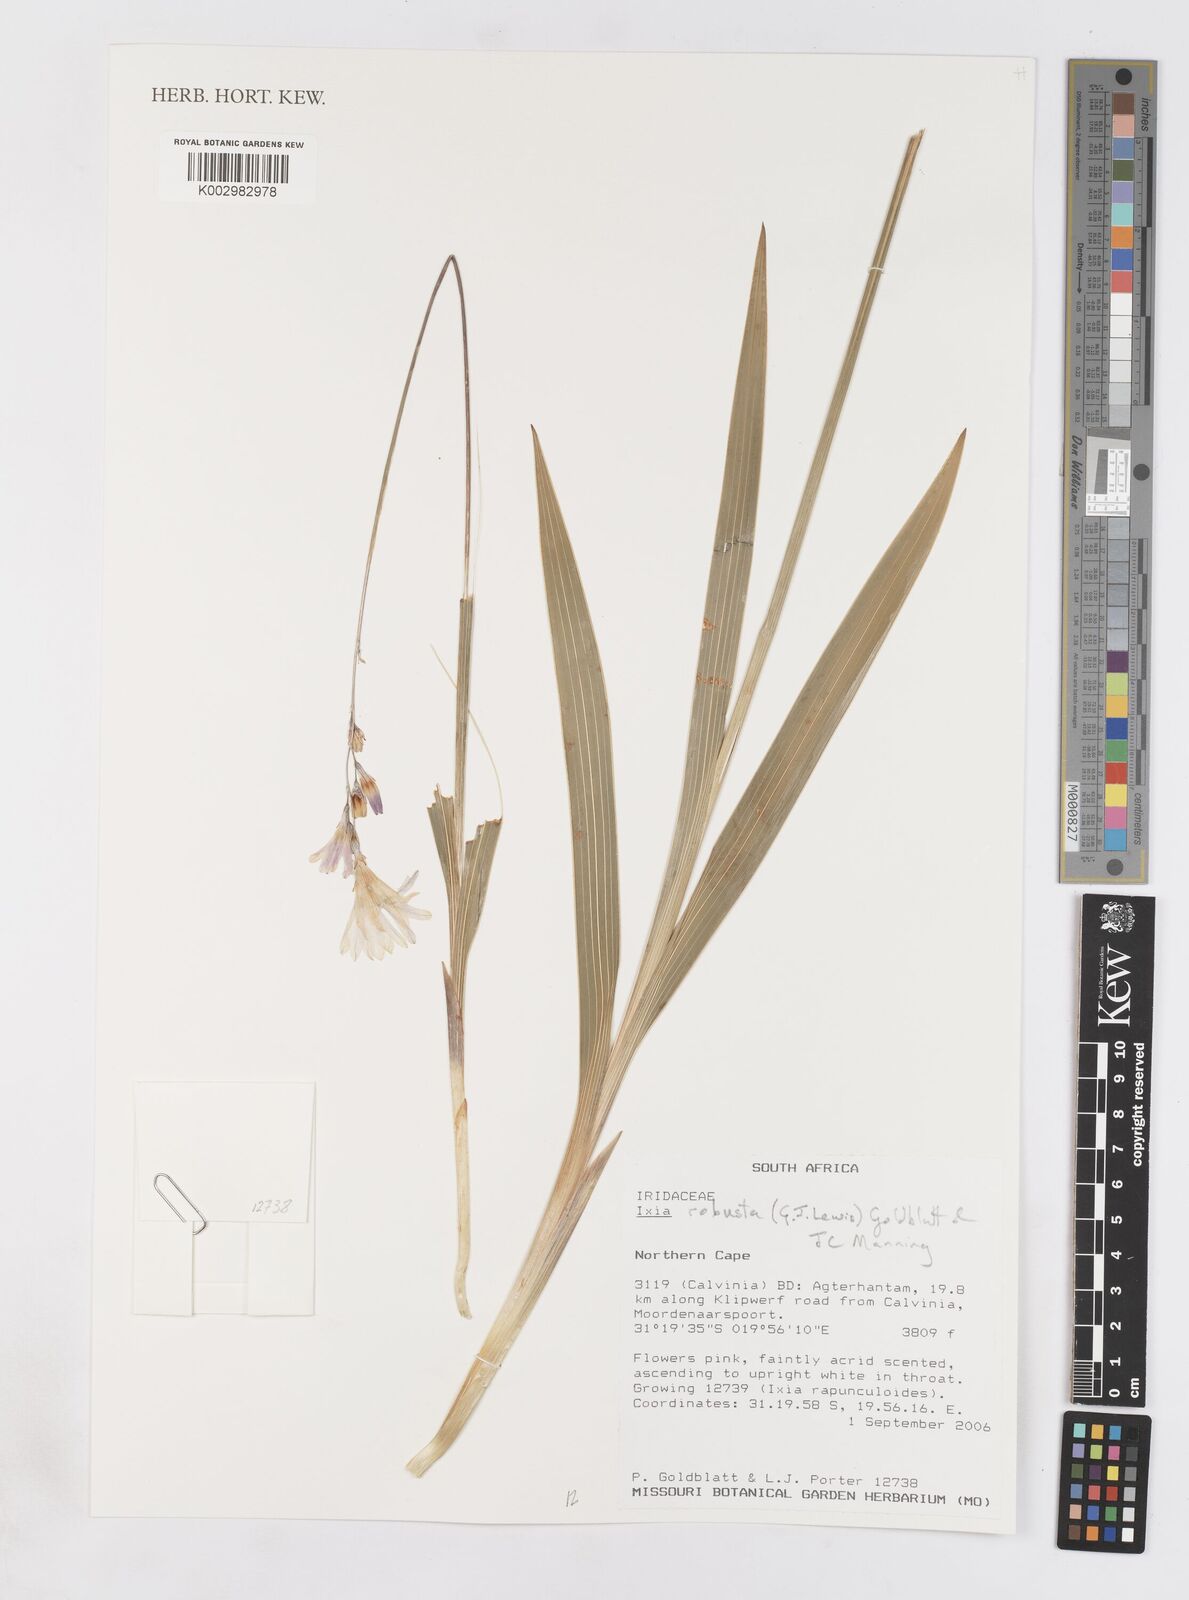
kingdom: Plantae
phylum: Tracheophyta
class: Liliopsida
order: Asparagales
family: Iridaceae
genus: Ixia
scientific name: Ixia robusta
